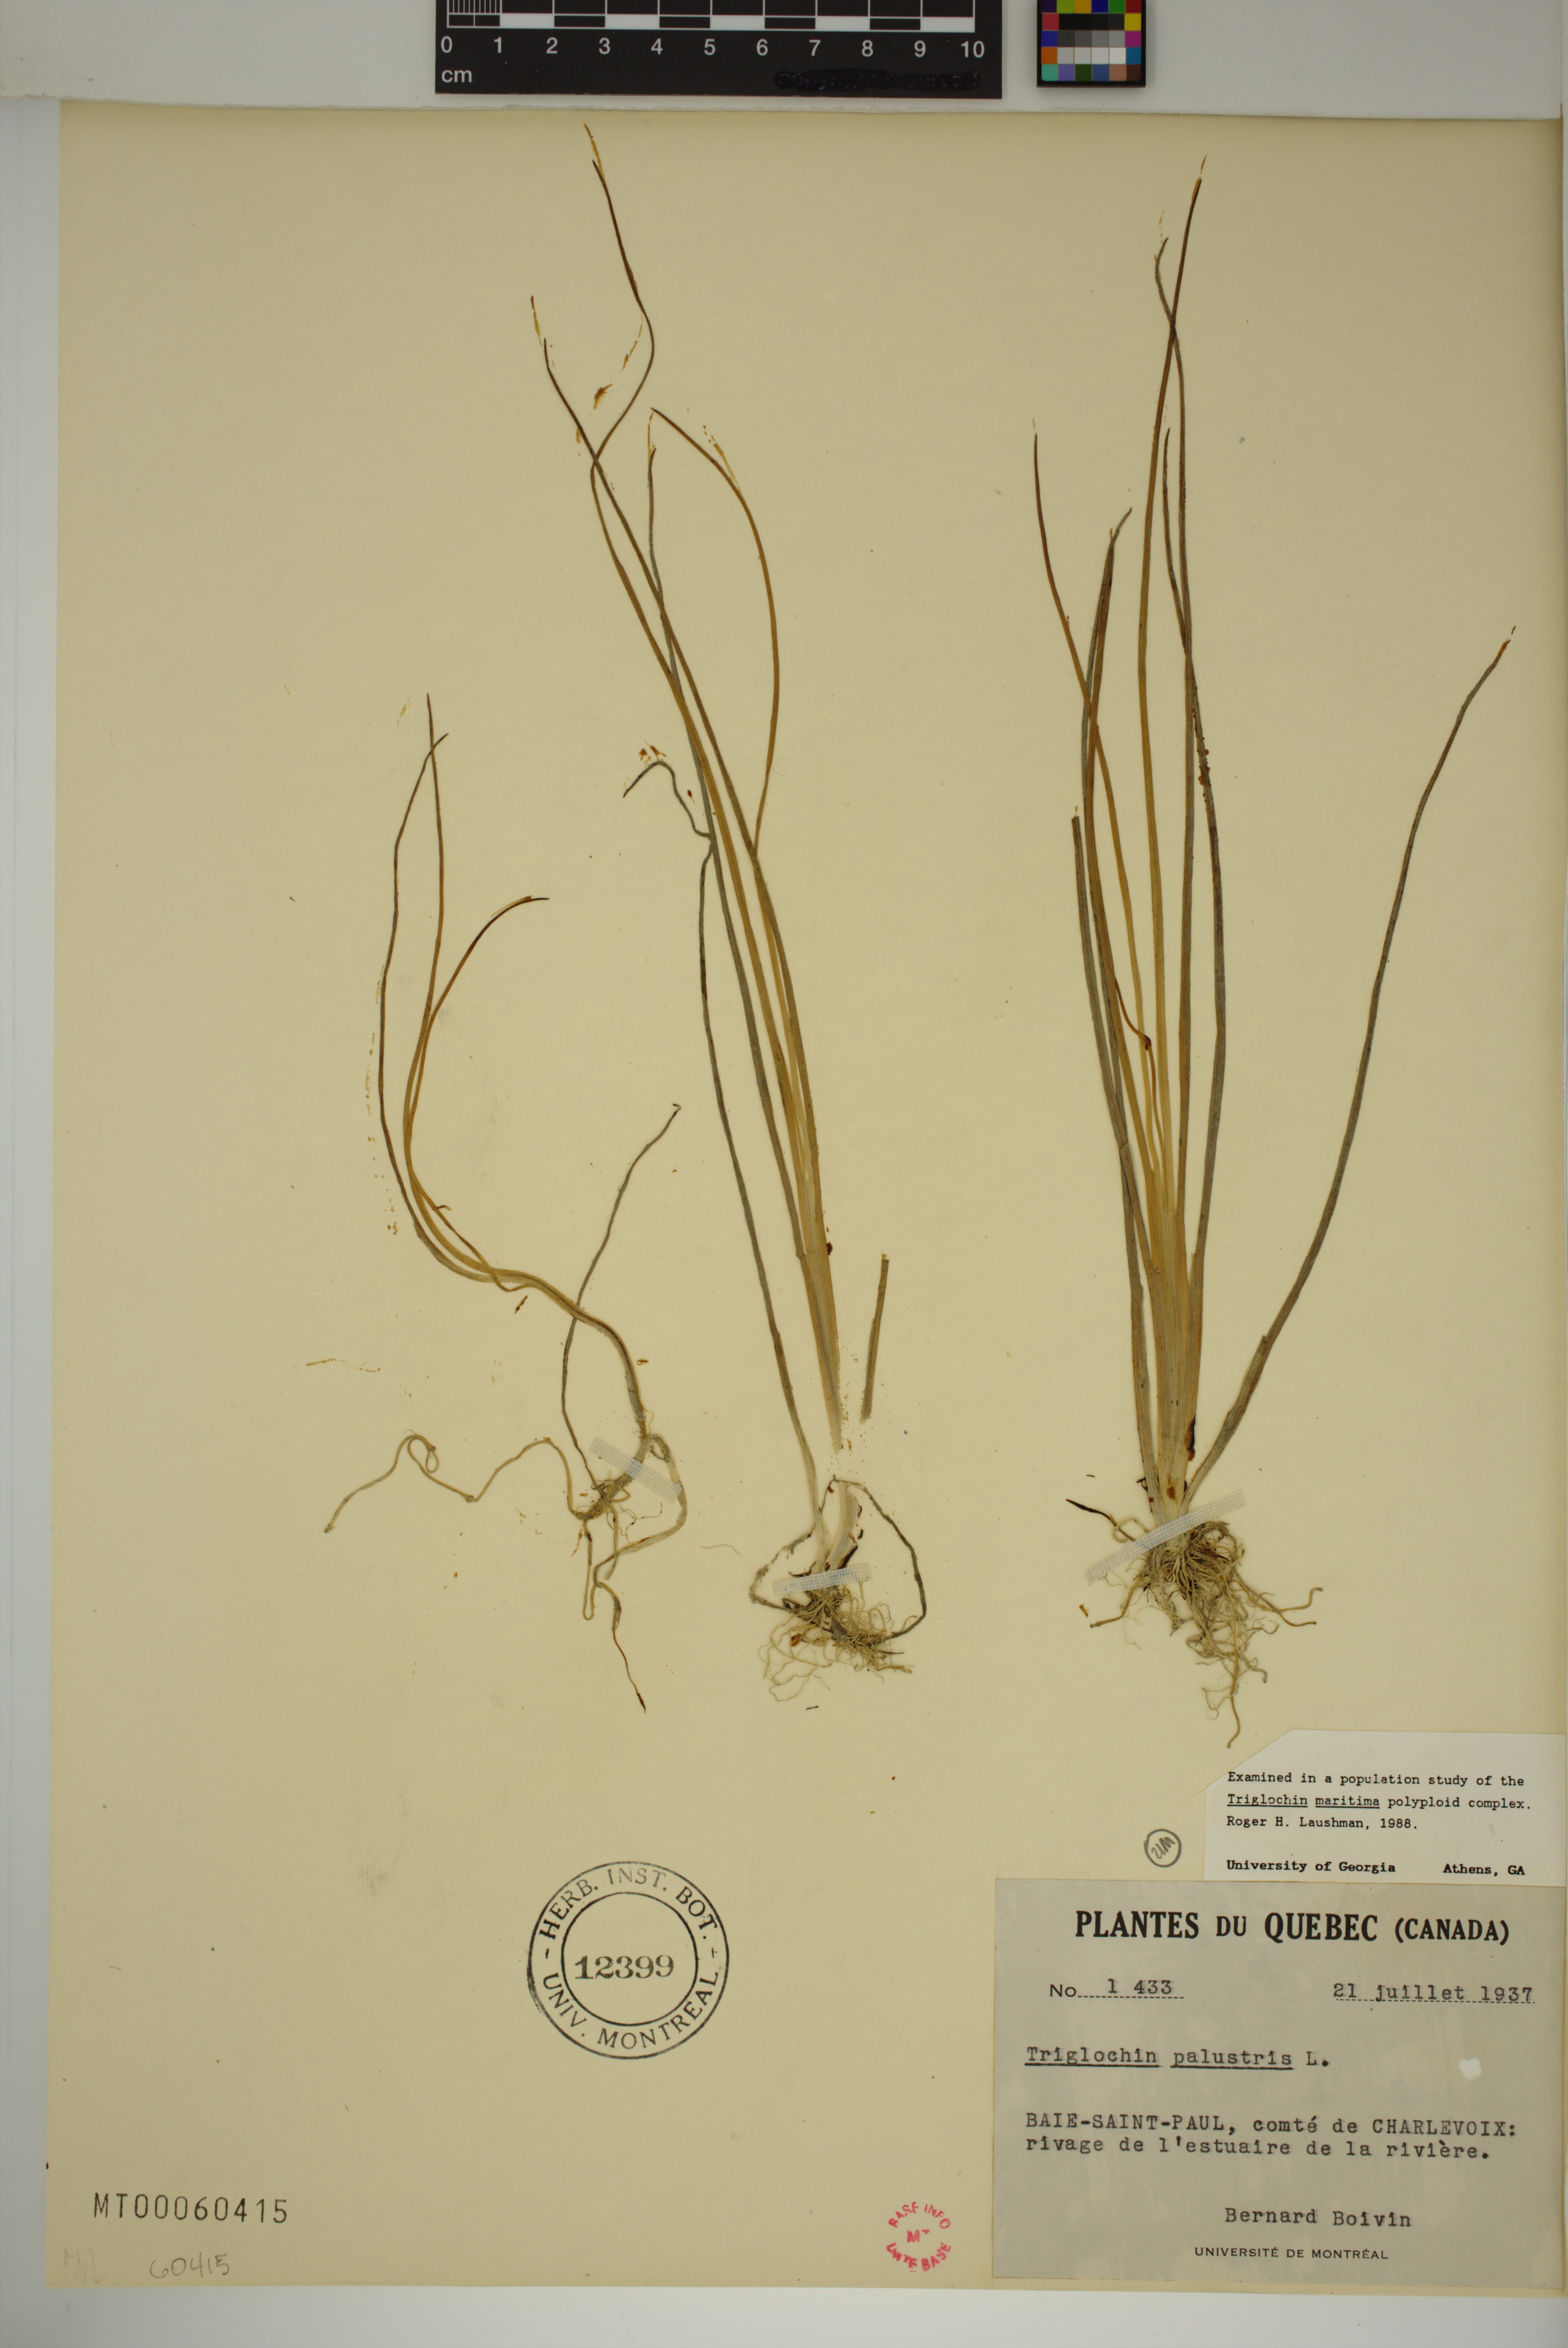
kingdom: Plantae
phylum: Tracheophyta
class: Liliopsida
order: Alismatales
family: Juncaginaceae
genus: Triglochin
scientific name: Triglochin palustris
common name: Marsh arrowgrass
